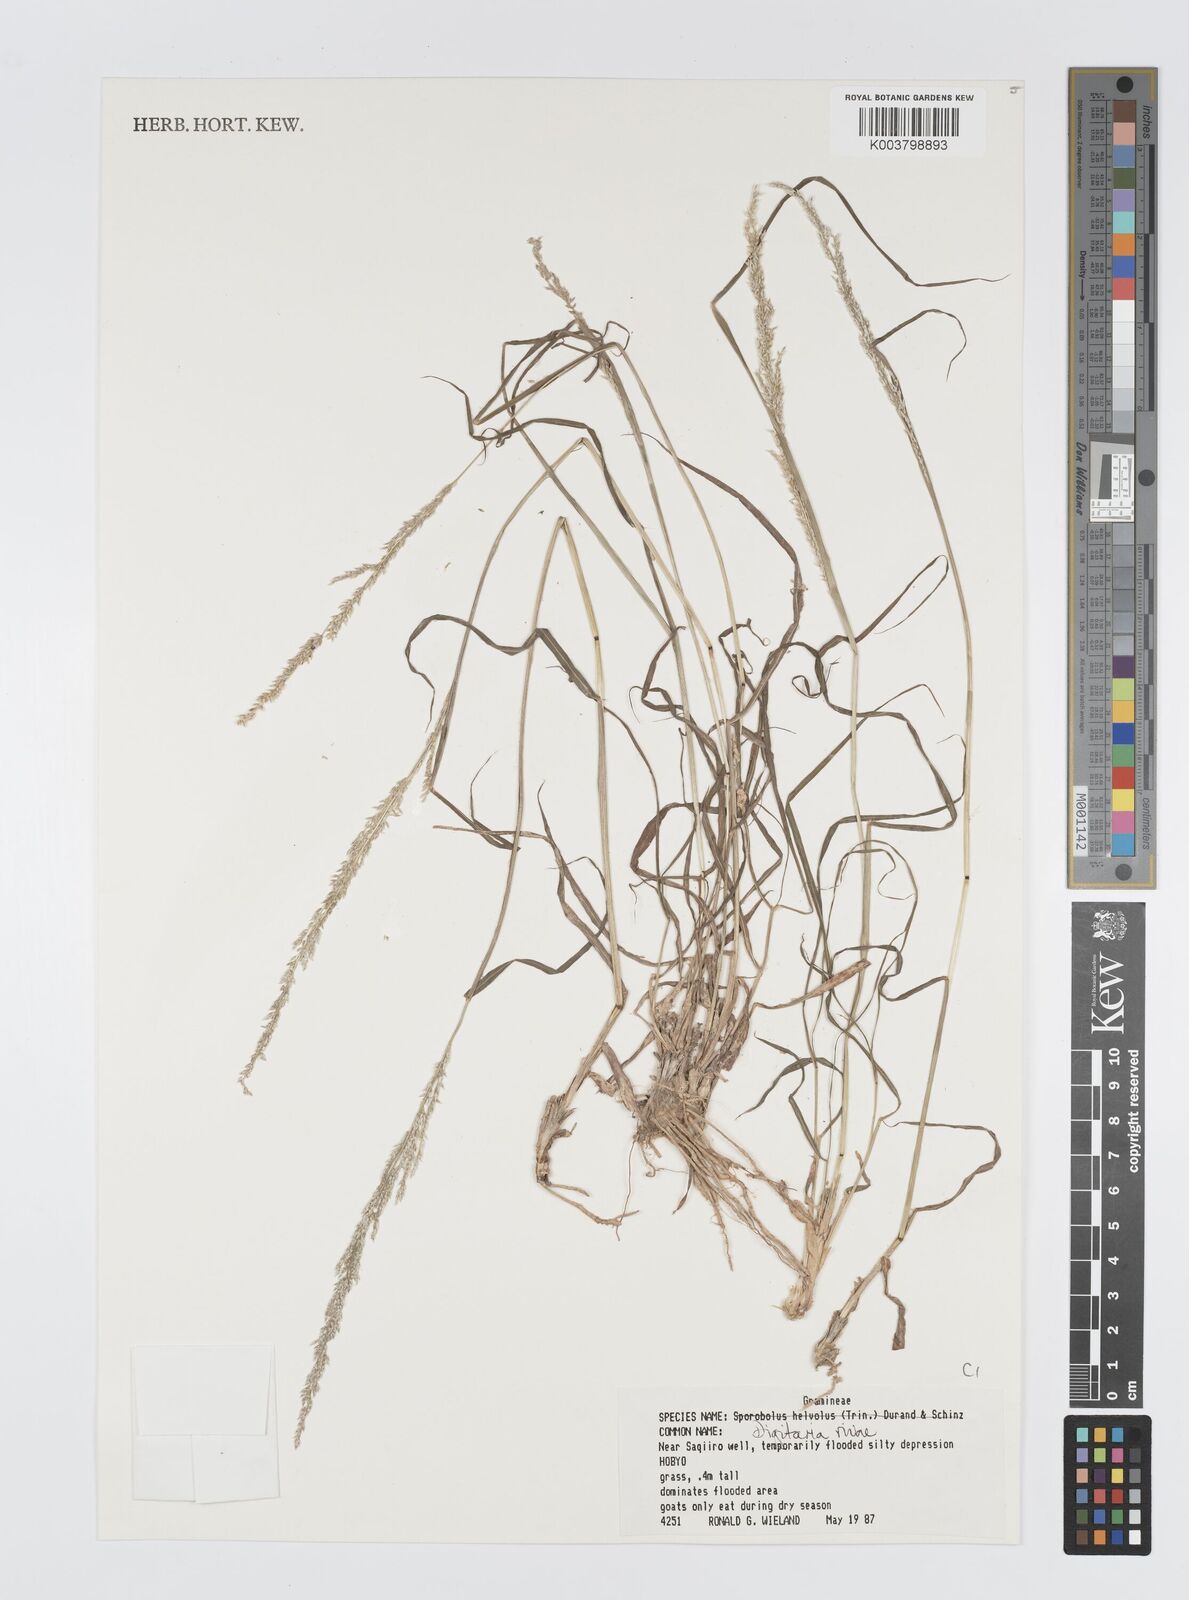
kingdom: Plantae
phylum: Tracheophyta
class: Liliopsida
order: Poales
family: Poaceae
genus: Digitaria
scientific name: Digitaria rivae
